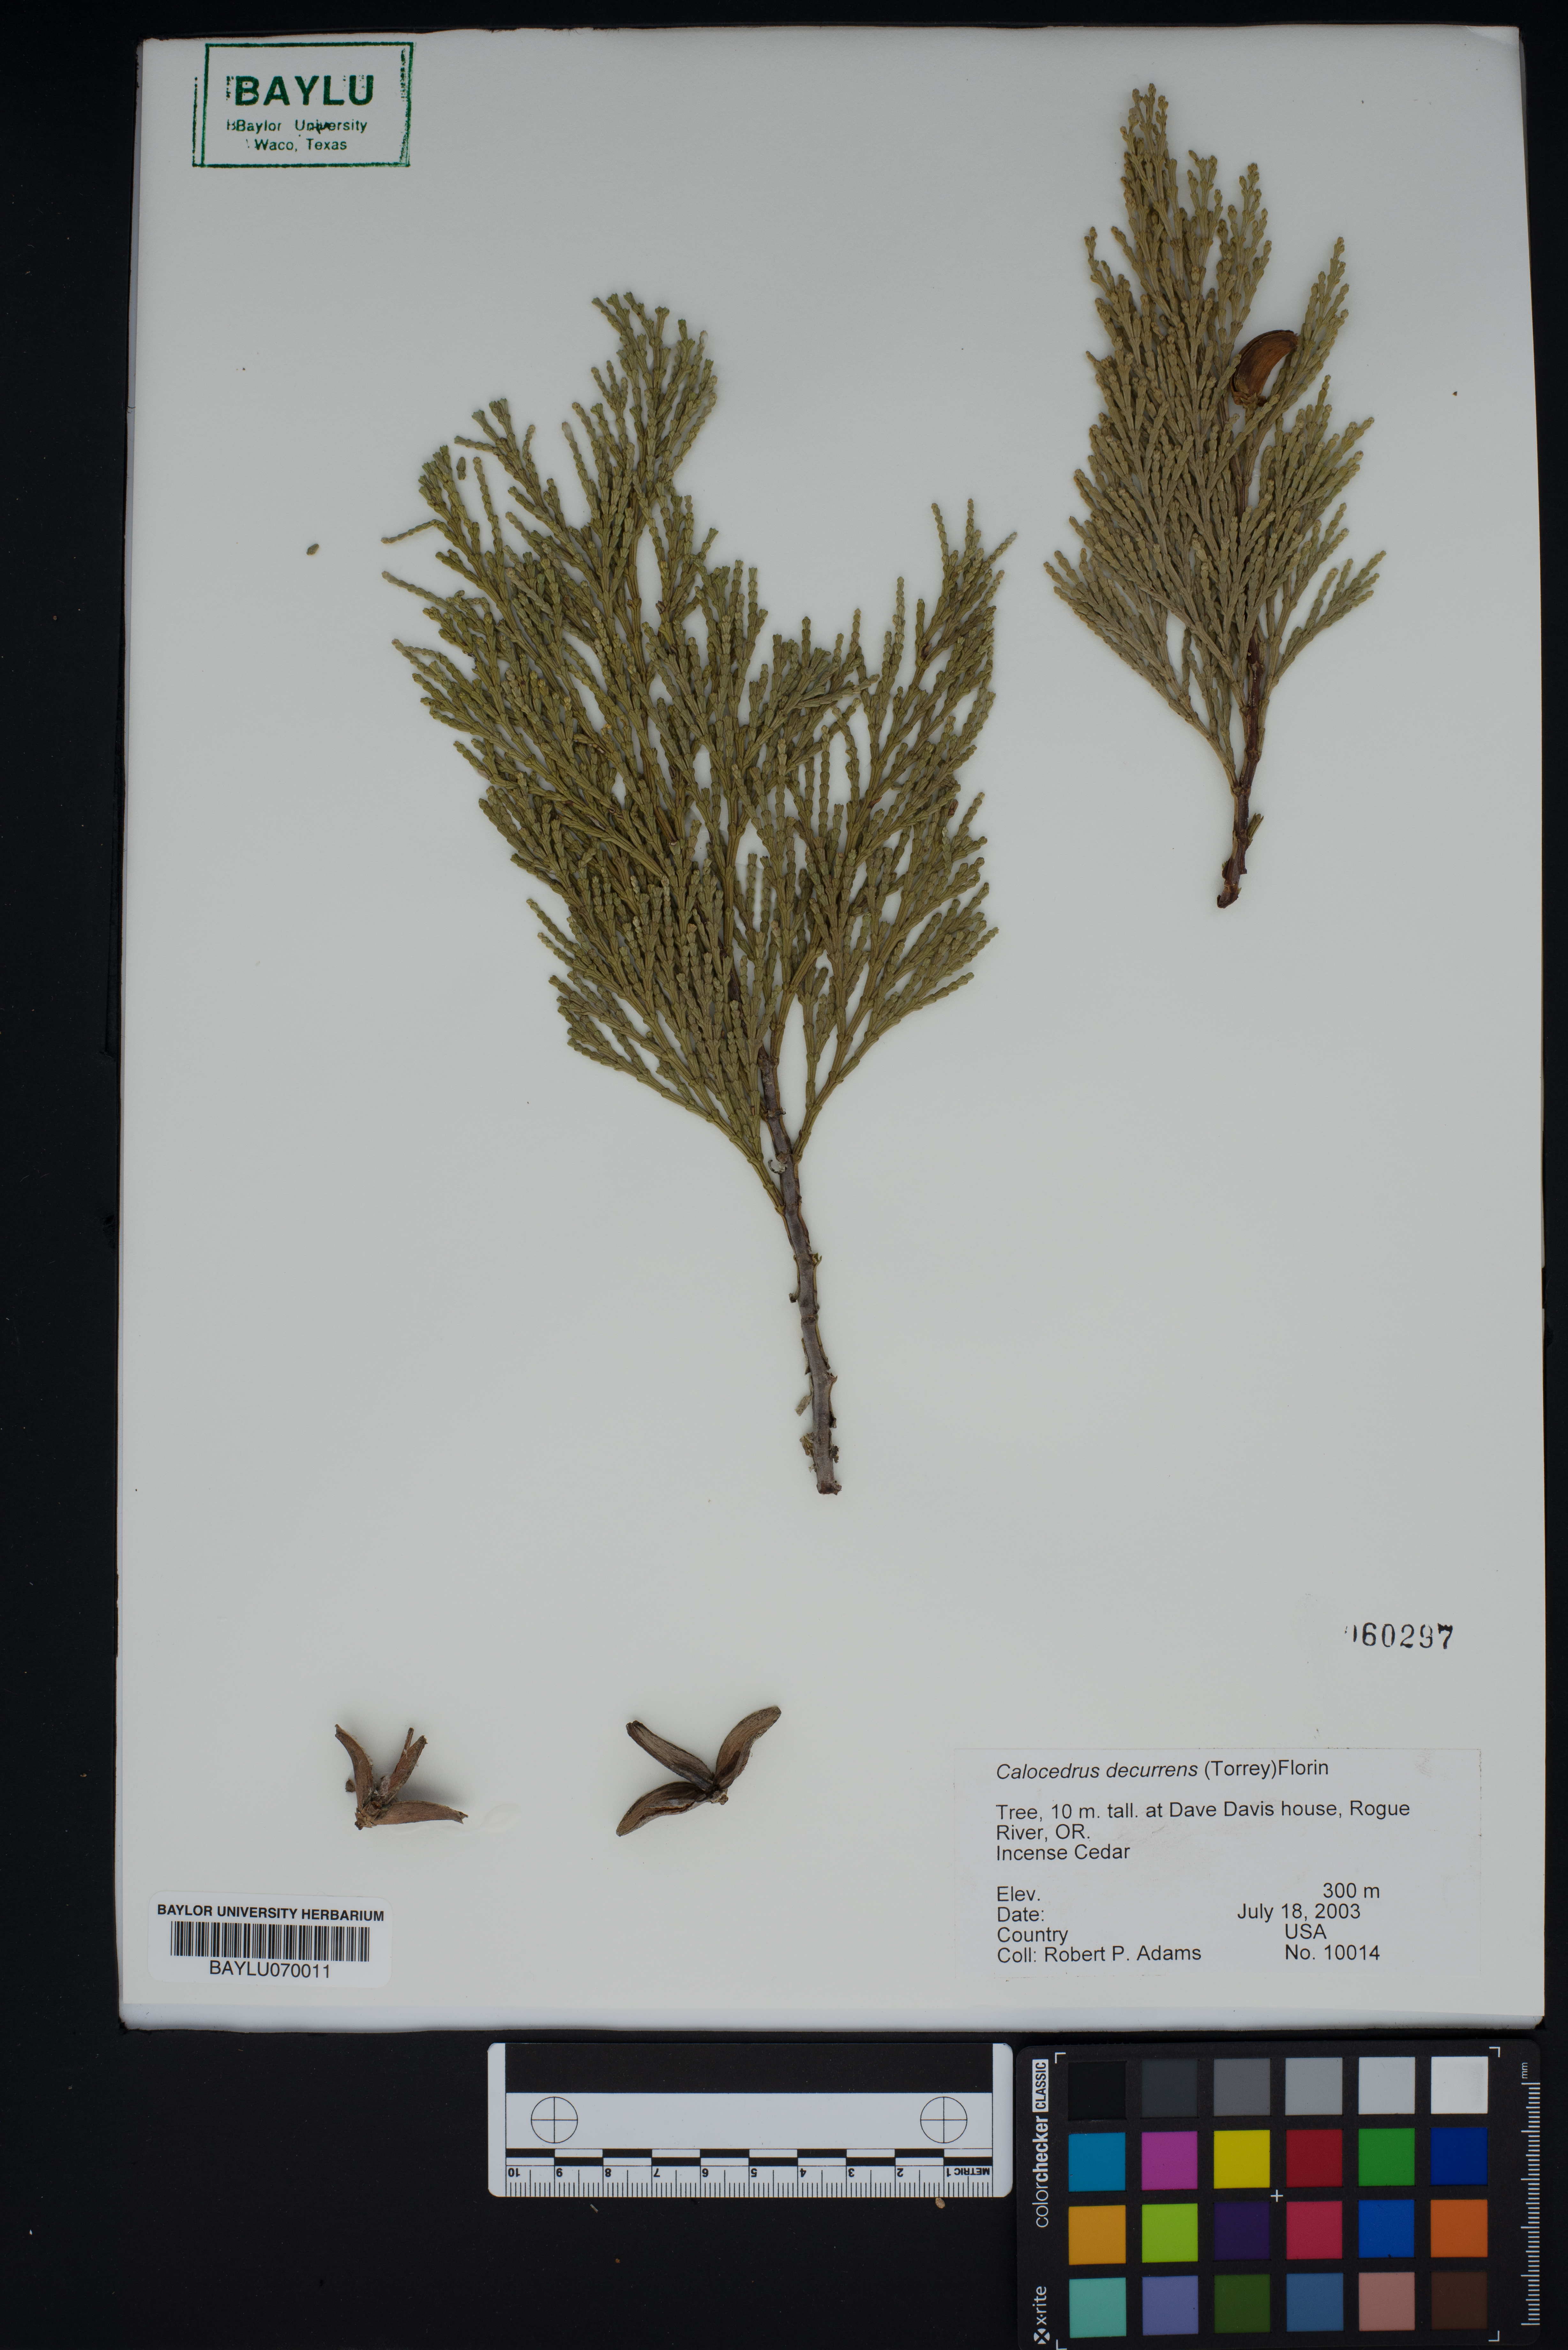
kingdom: Plantae
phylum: Tracheophyta
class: Pinopsida
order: Pinales
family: Cupressaceae
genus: Calocedrus
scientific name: Calocedrus decurrens
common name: Californian incense-cedar
